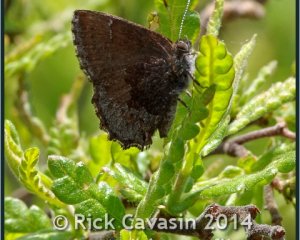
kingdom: Animalia
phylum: Arthropoda
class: Insecta
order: Lepidoptera
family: Lycaenidae
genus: Callophrys
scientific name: Callophrys polios
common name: Hoary Elfin
